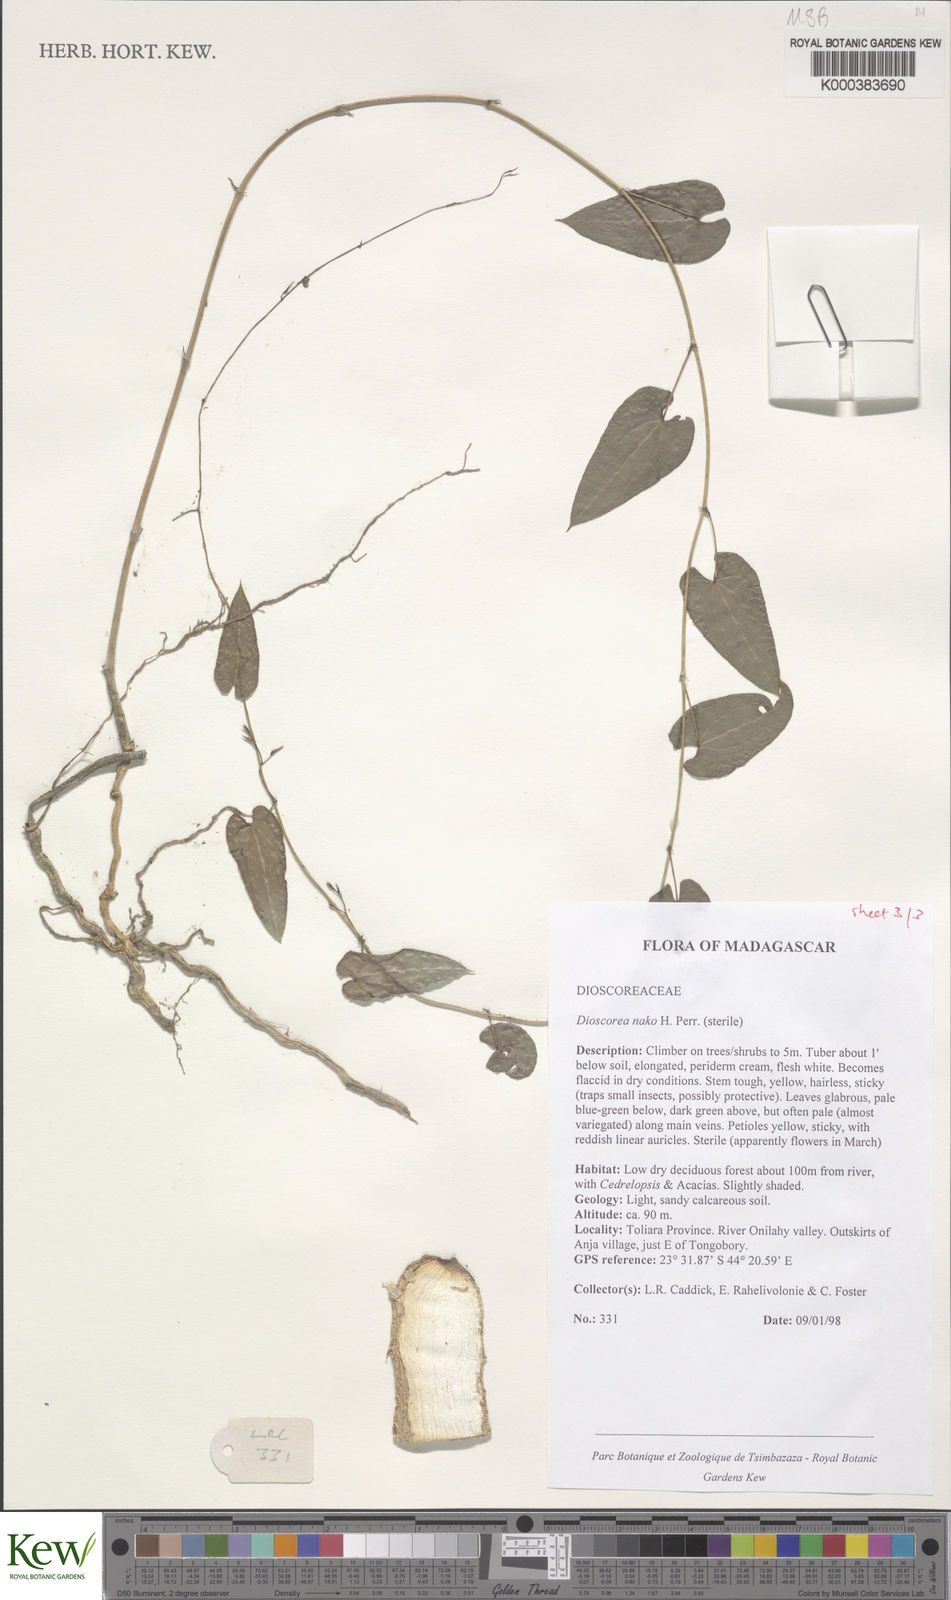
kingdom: Plantae
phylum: Tracheophyta
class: Liliopsida
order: Dioscoreales
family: Dioscoreaceae
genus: Dioscorea
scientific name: Dioscorea
